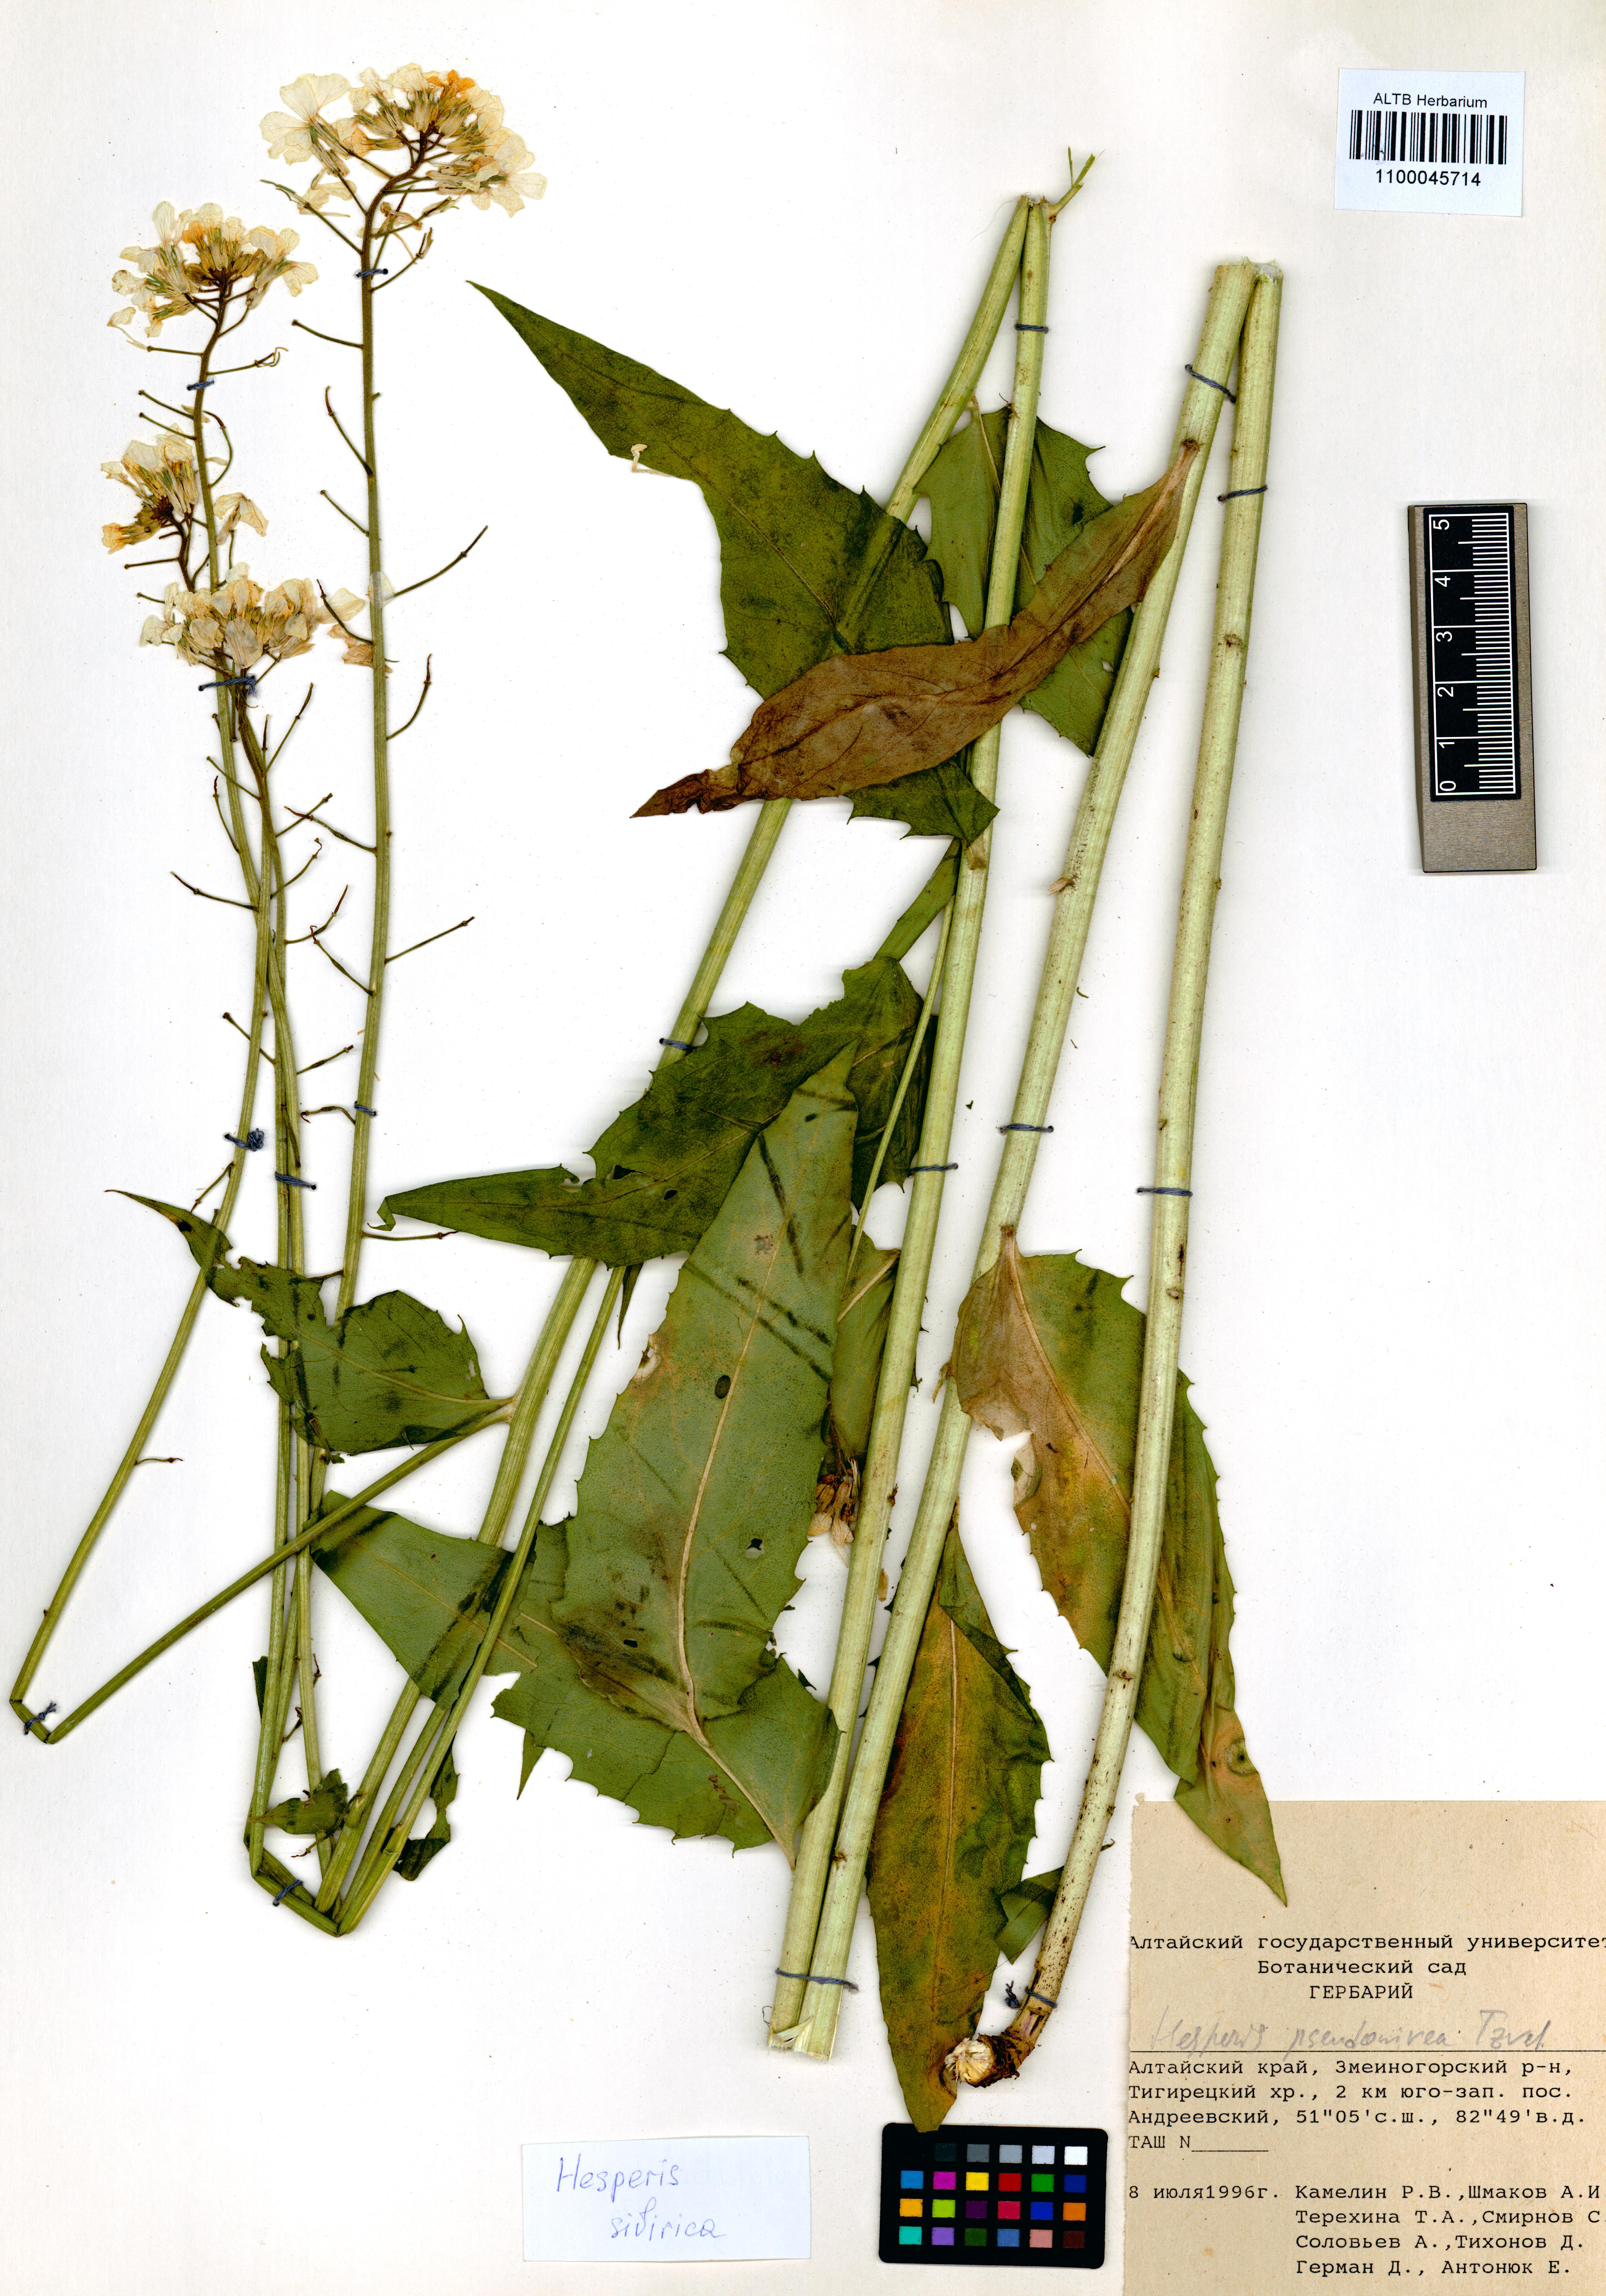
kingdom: Plantae
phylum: Tracheophyta
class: Magnoliopsida
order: Brassicales
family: Brassicaceae
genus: Hesperis
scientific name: Hesperis sibirica
